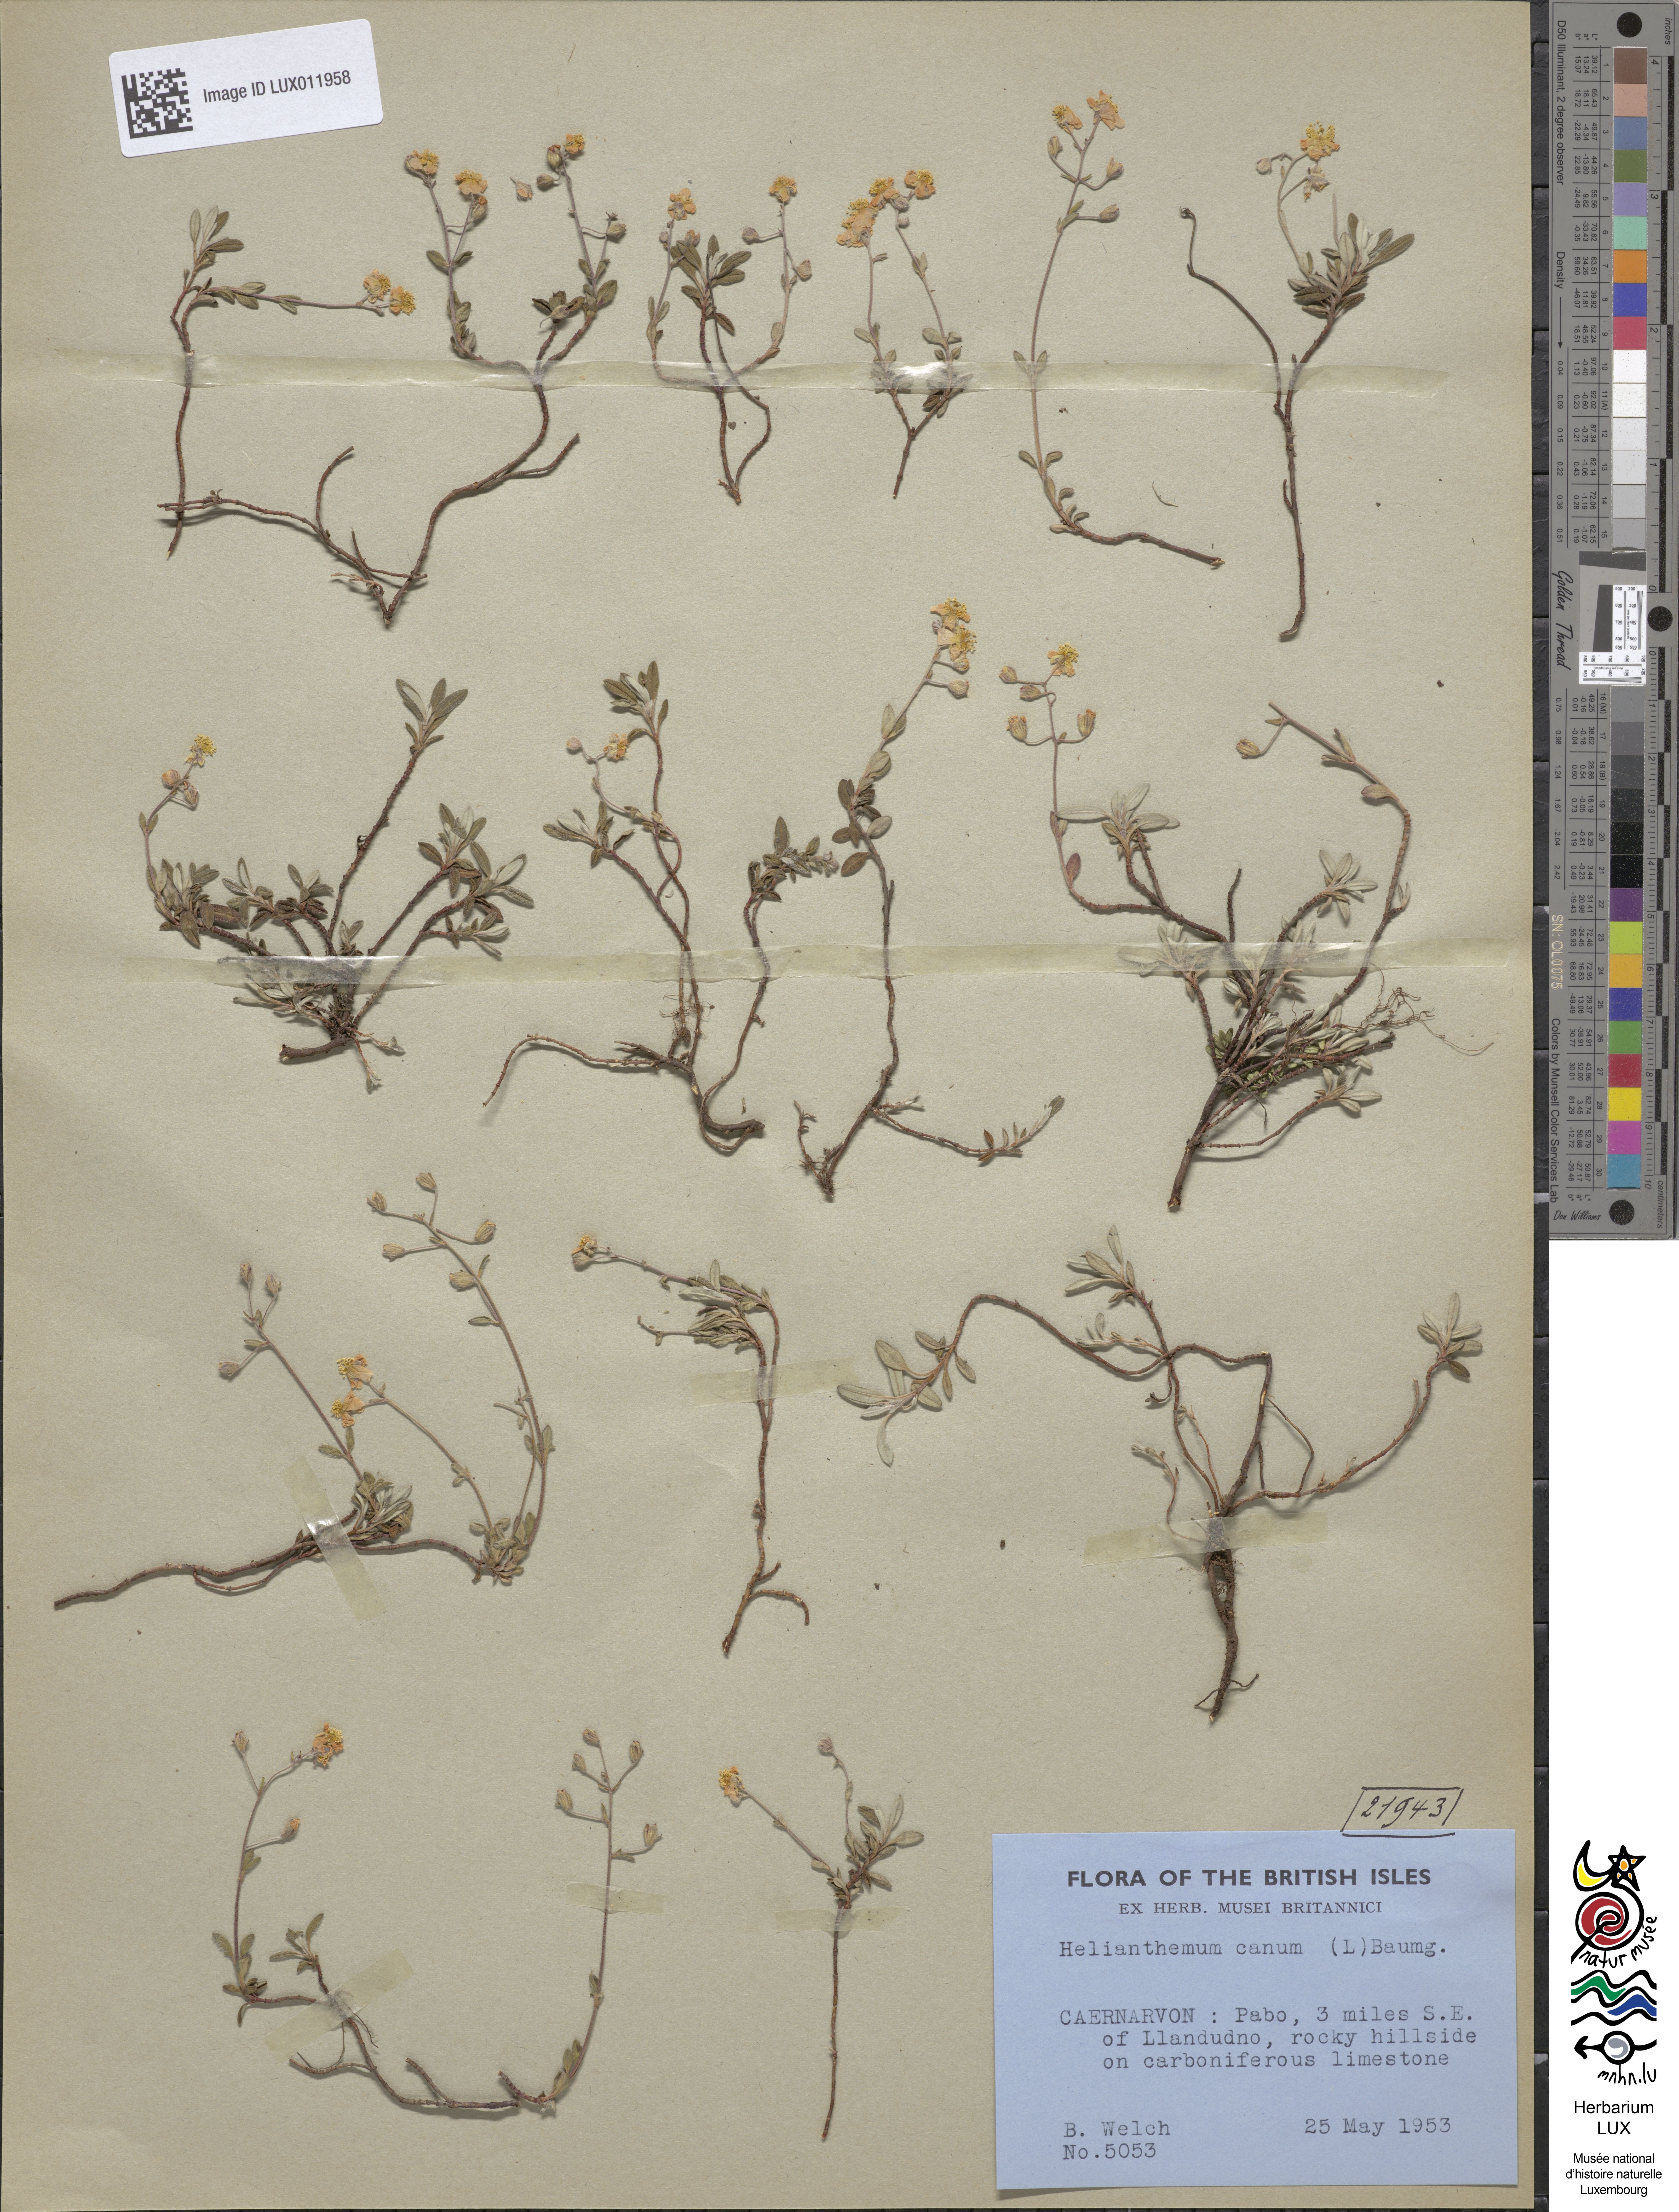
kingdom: Plantae
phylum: Tracheophyta
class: Magnoliopsida
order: Malvales
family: Cistaceae
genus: Helianthemum
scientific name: Helianthemum canum
